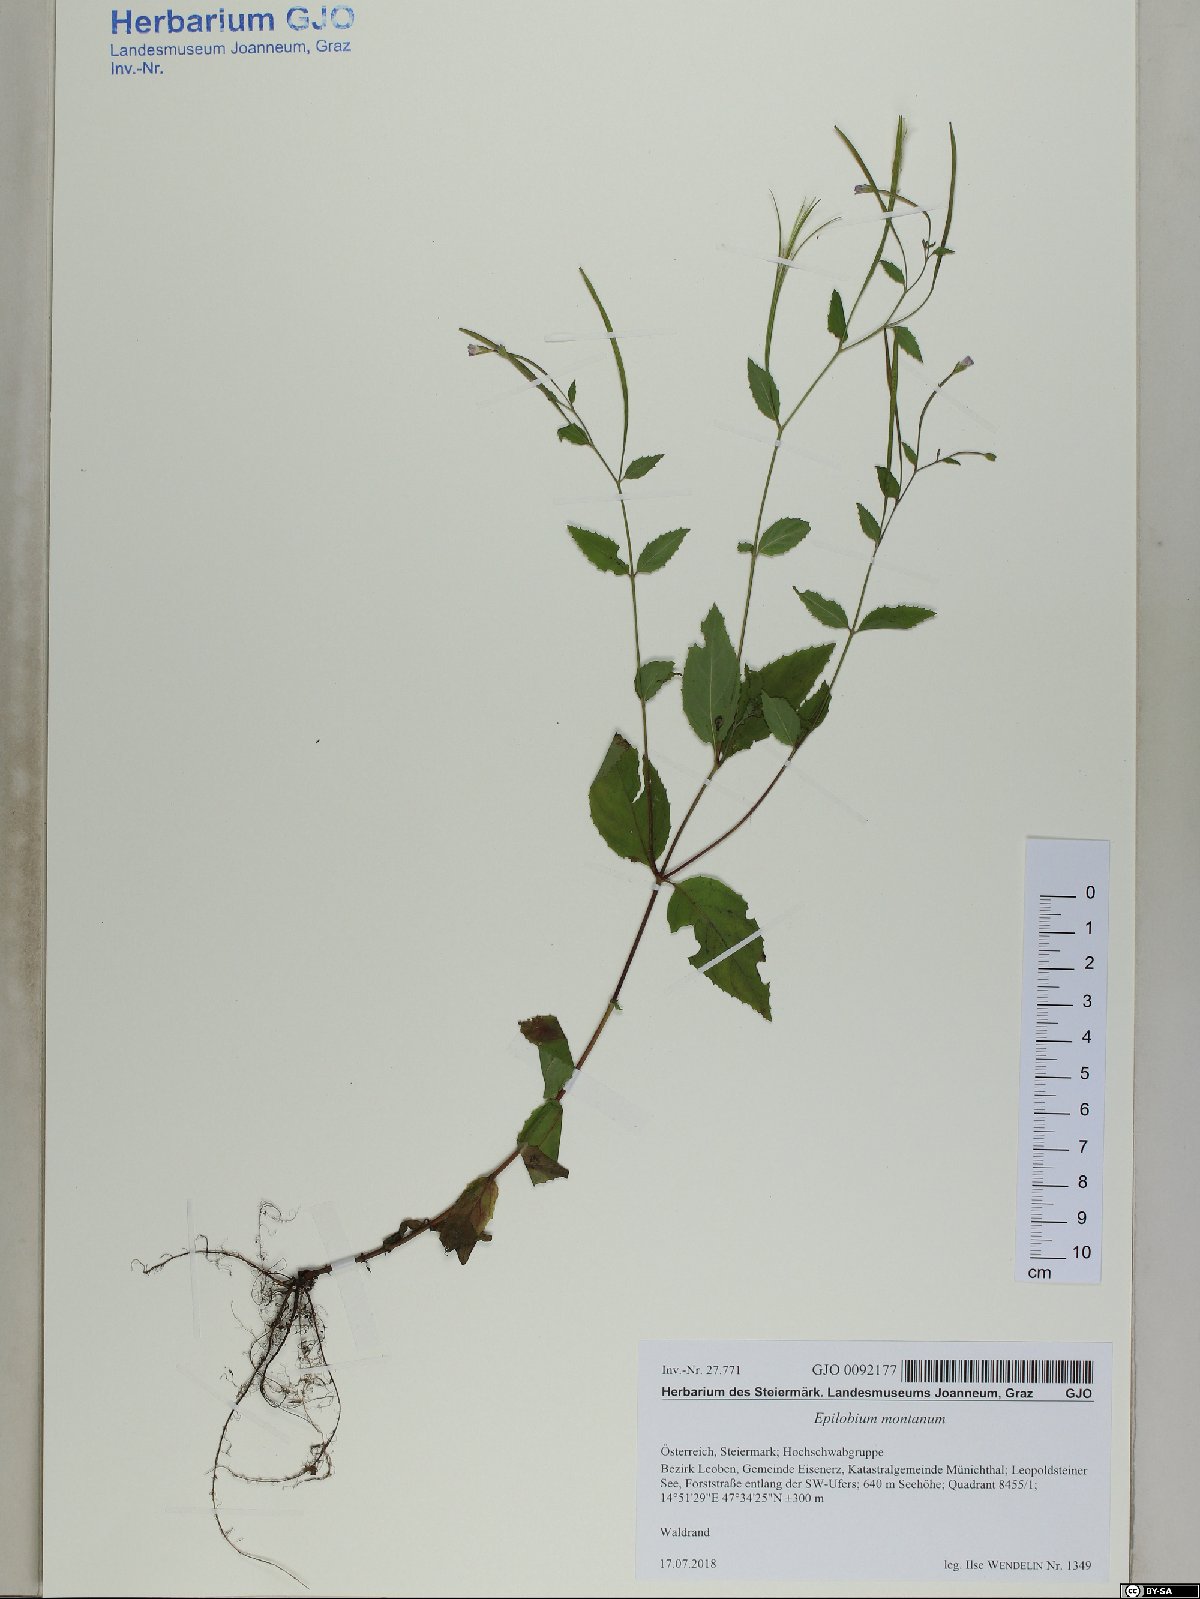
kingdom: Plantae
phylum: Tracheophyta
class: Magnoliopsida
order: Myrtales
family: Onagraceae
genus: Epilobium
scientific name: Epilobium montanum
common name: Broad-leaved willowherb
